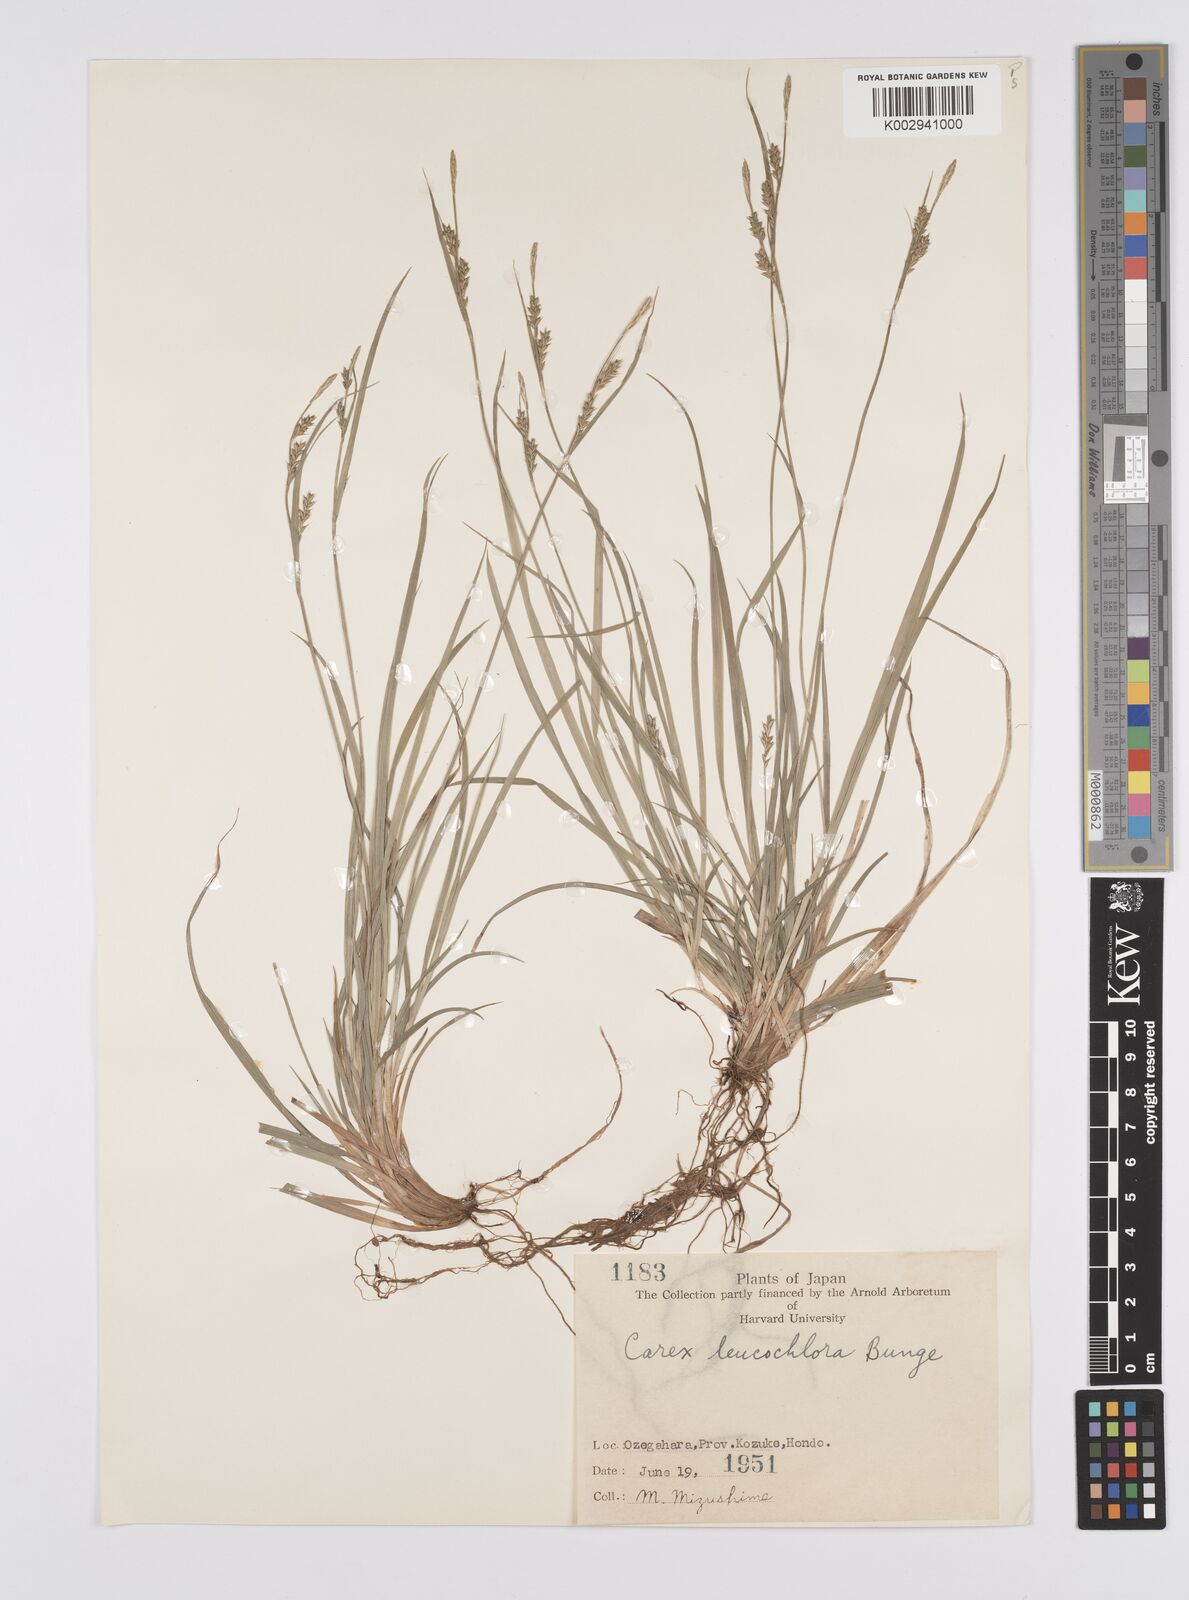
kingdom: Plantae
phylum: Tracheophyta
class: Liliopsida
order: Poales
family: Cyperaceae
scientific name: Cyperaceae
